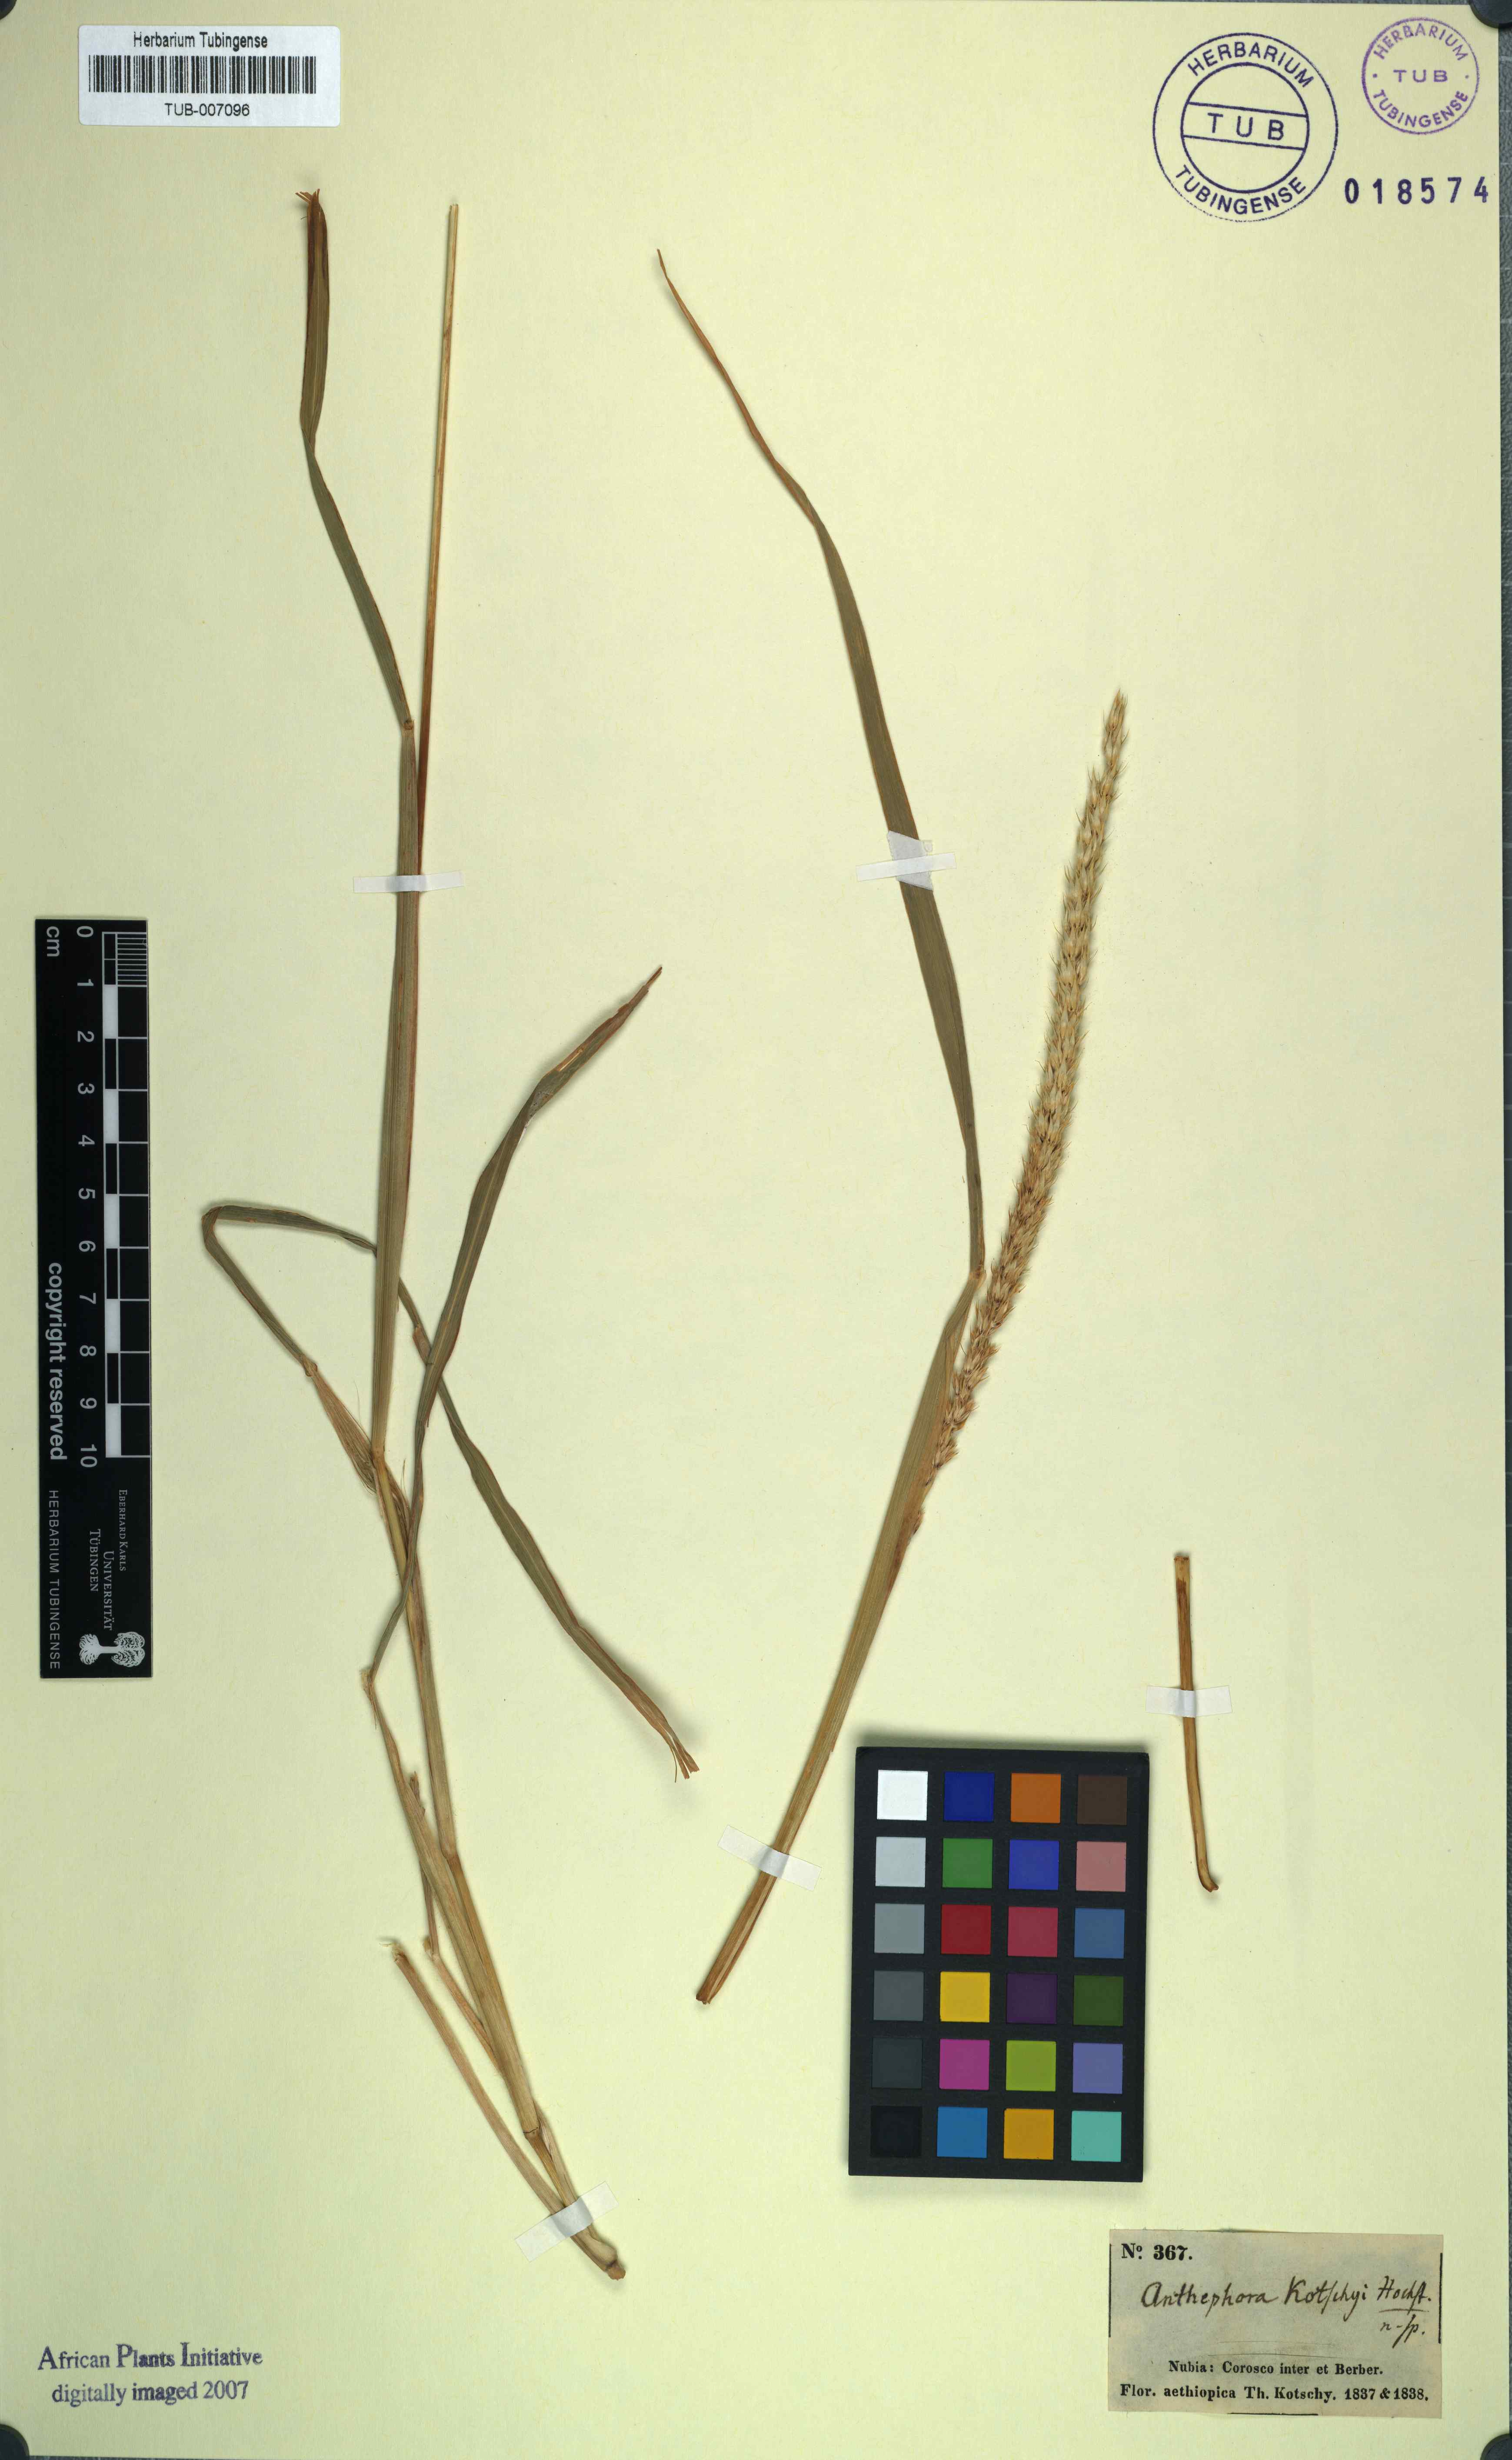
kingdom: Plantae
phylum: Tracheophyta
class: Liliopsida
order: Poales
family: Poaceae
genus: Anthephora
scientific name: Anthephora pubescens
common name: Wool grass
